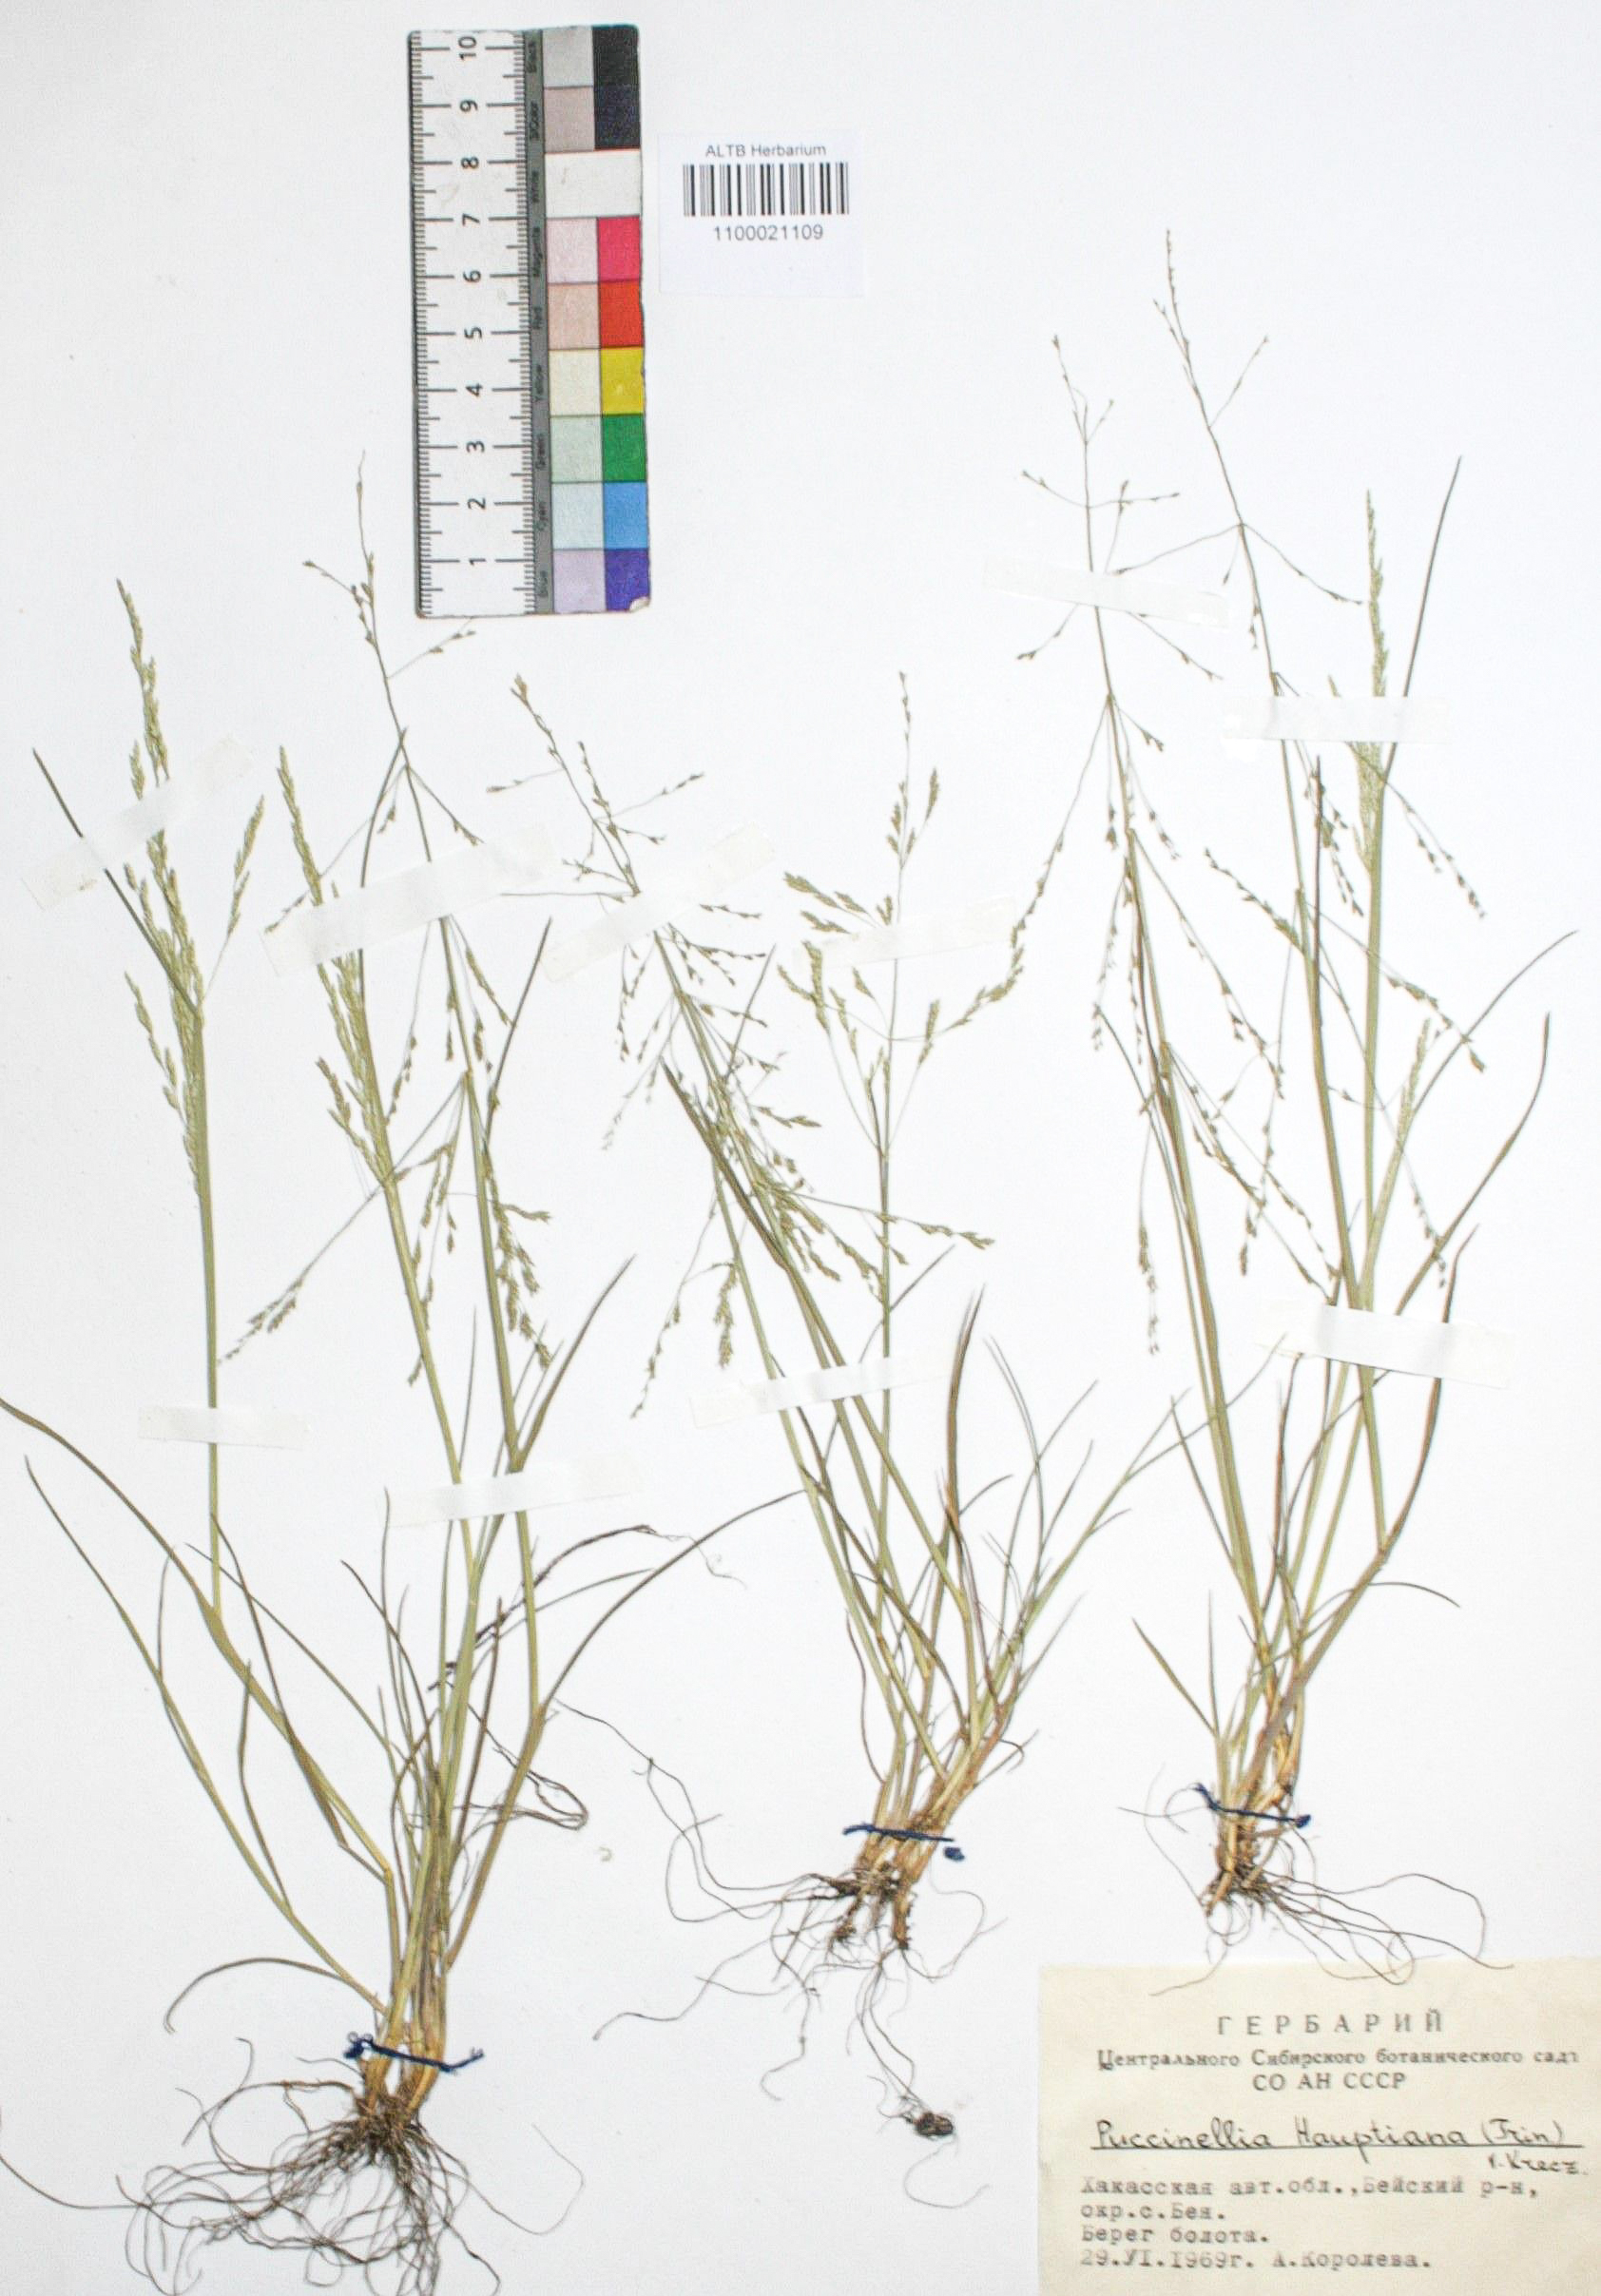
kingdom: Plantae
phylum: Tracheophyta
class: Liliopsida
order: Poales
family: Poaceae
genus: Puccinellia
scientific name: Puccinellia hauptiana
